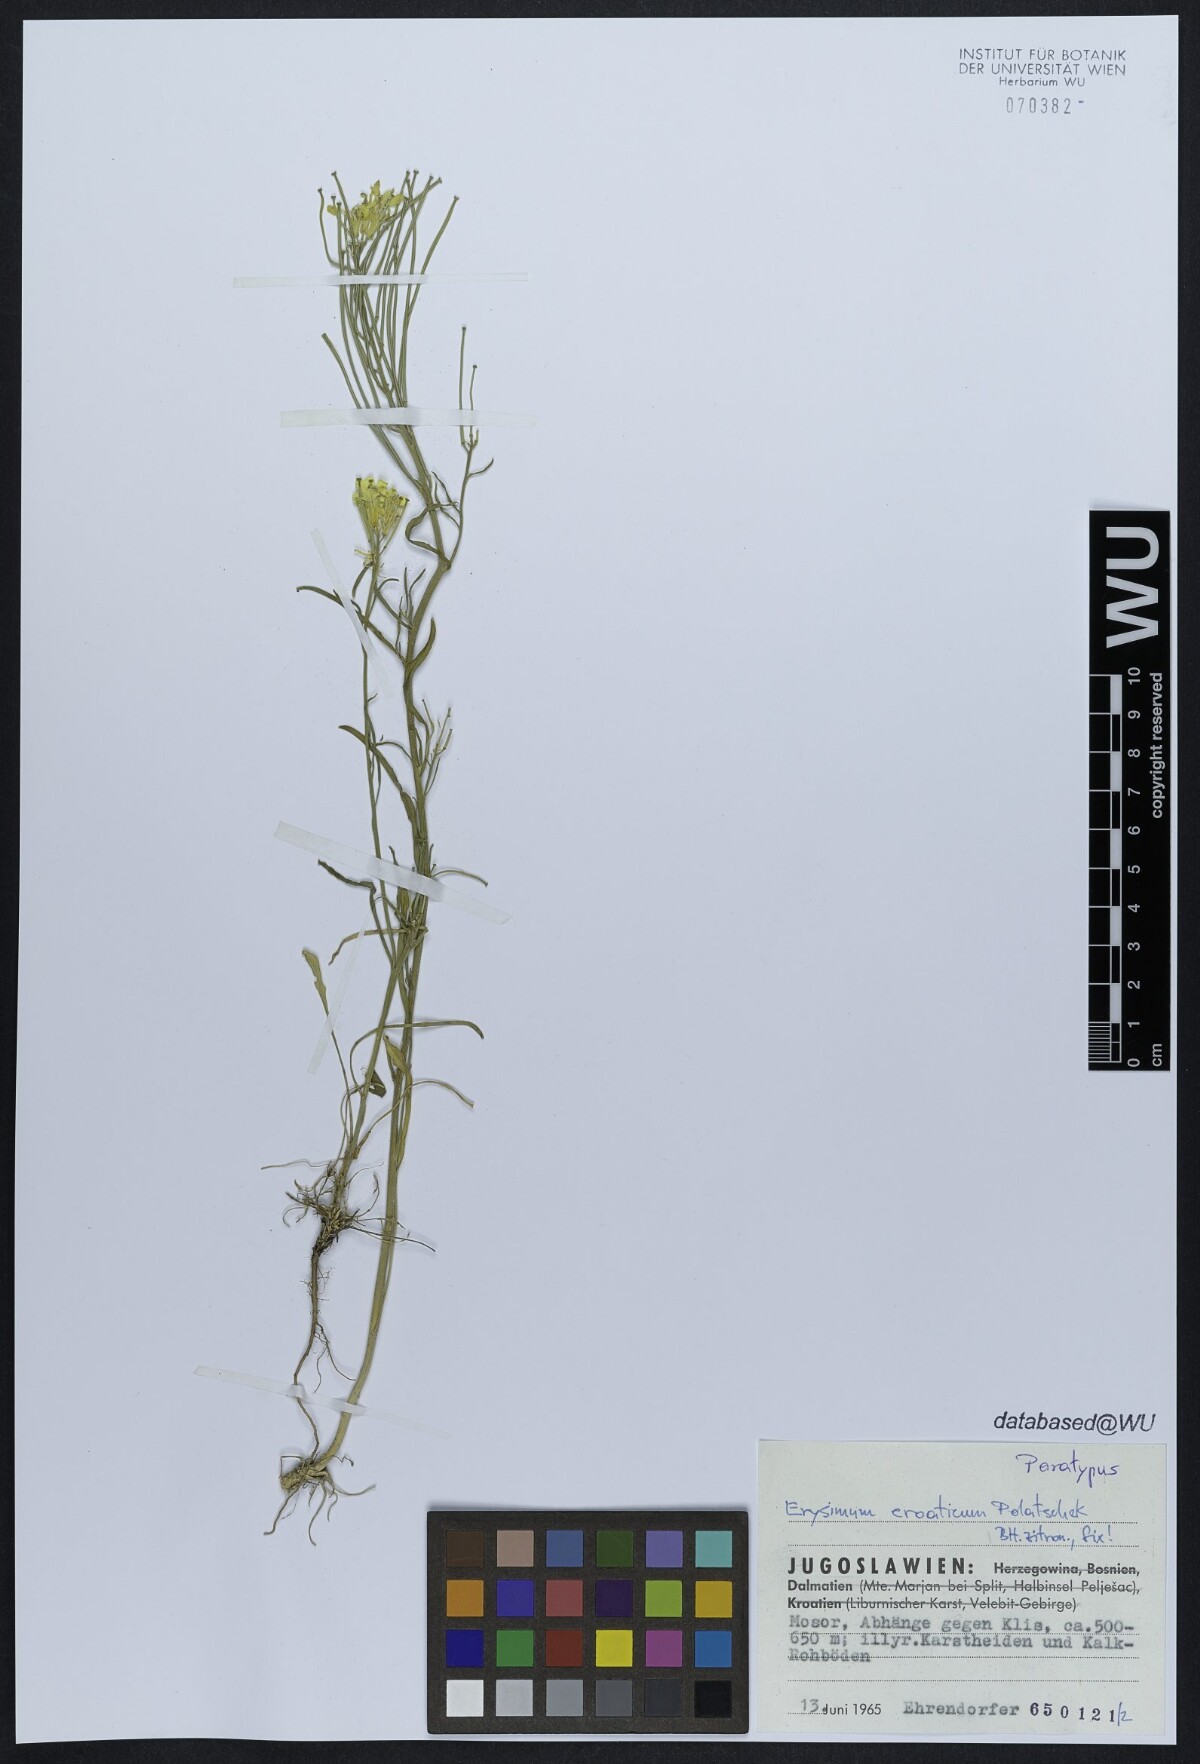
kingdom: Plantae
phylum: Tracheophyta
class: Magnoliopsida
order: Brassicales
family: Brassicaceae
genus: Erysimum
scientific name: Erysimum croaticum
